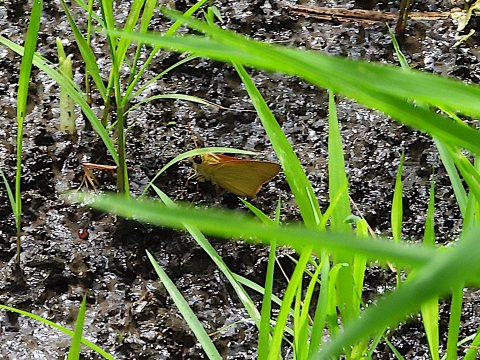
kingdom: Animalia
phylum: Arthropoda
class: Insecta
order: Lepidoptera
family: Hesperiidae
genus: Atrytone
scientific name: Atrytone delaware
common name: Delaware Skipper
